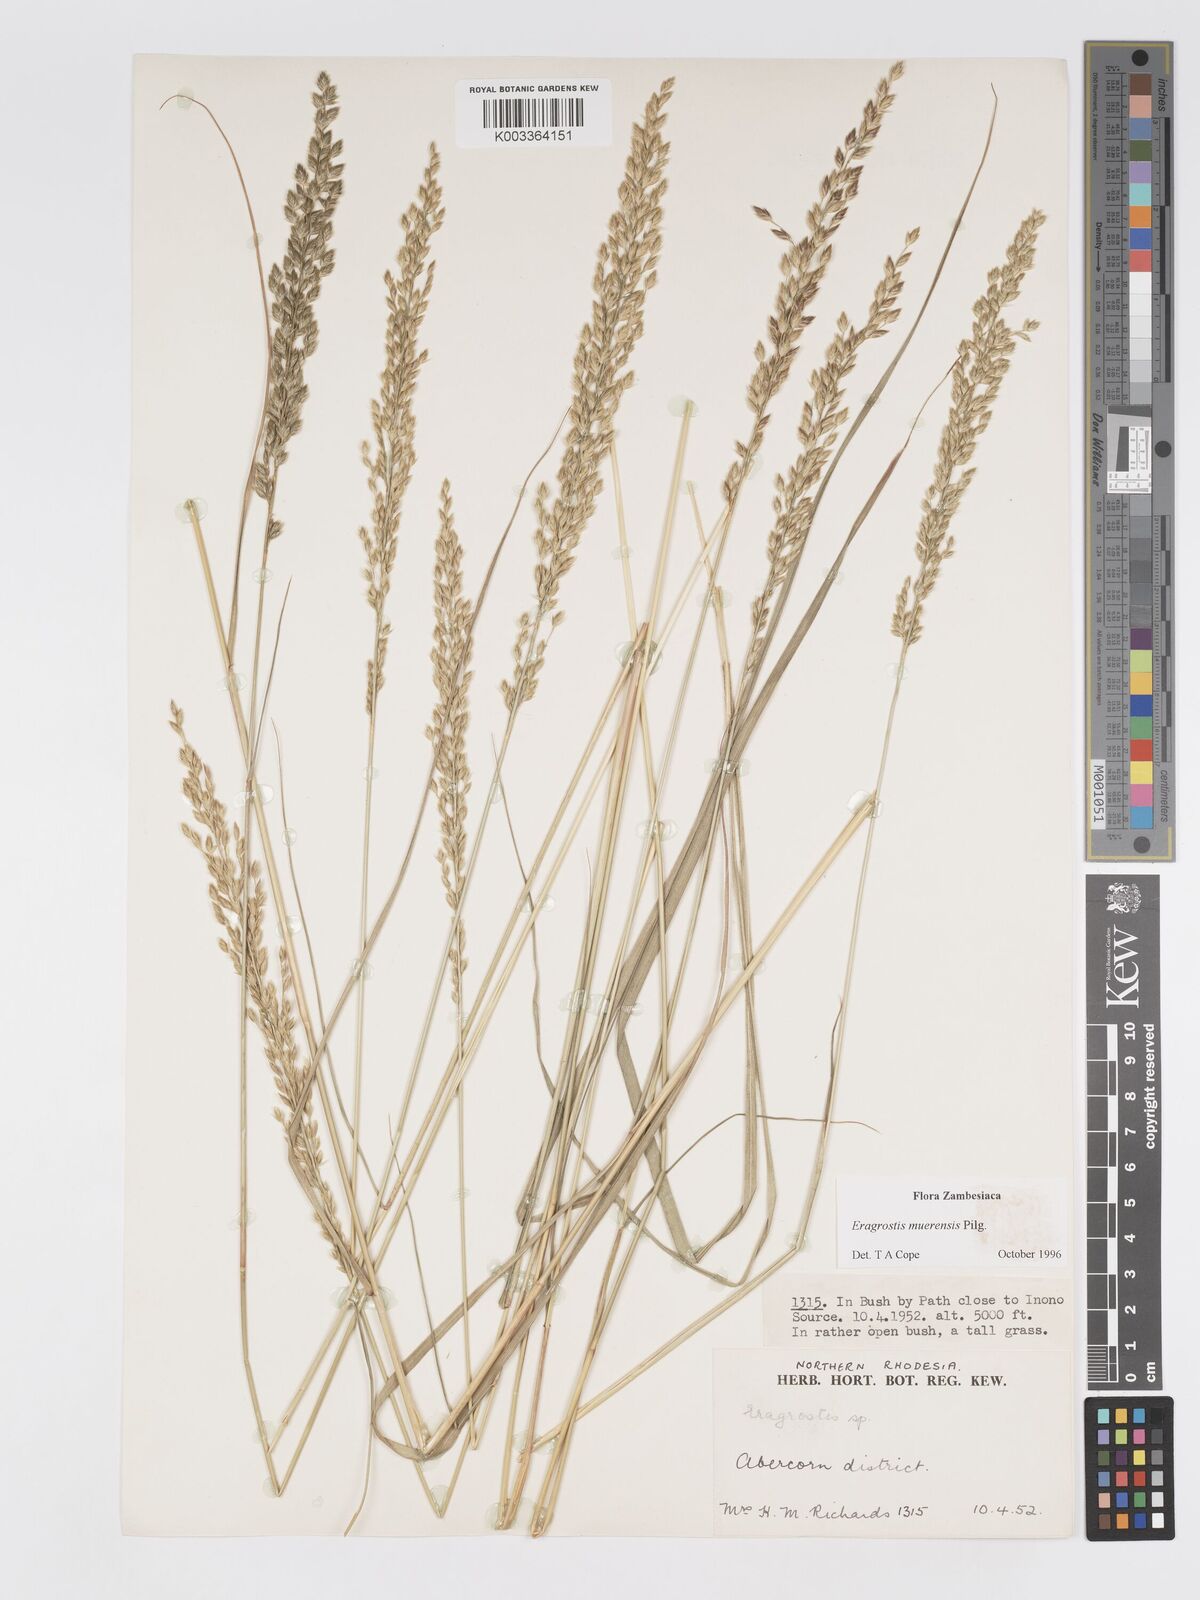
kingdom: Plantae
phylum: Tracheophyta
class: Liliopsida
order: Poales
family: Poaceae
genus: Eragrostis
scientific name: Eragrostis muerensis
